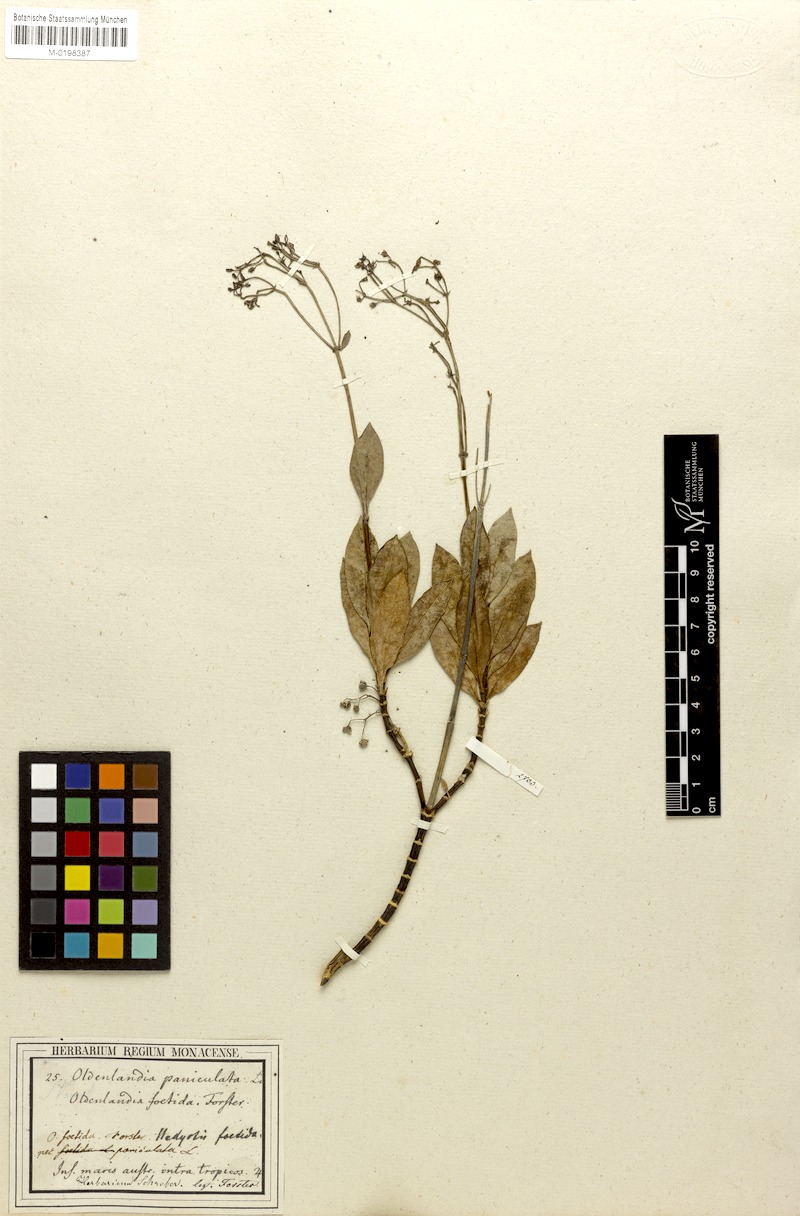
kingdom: Plantae
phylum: Tracheophyta
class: Magnoliopsida
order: Gentianales
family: Rubiaceae
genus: Leptopetalum
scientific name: Leptopetalum foetidum
